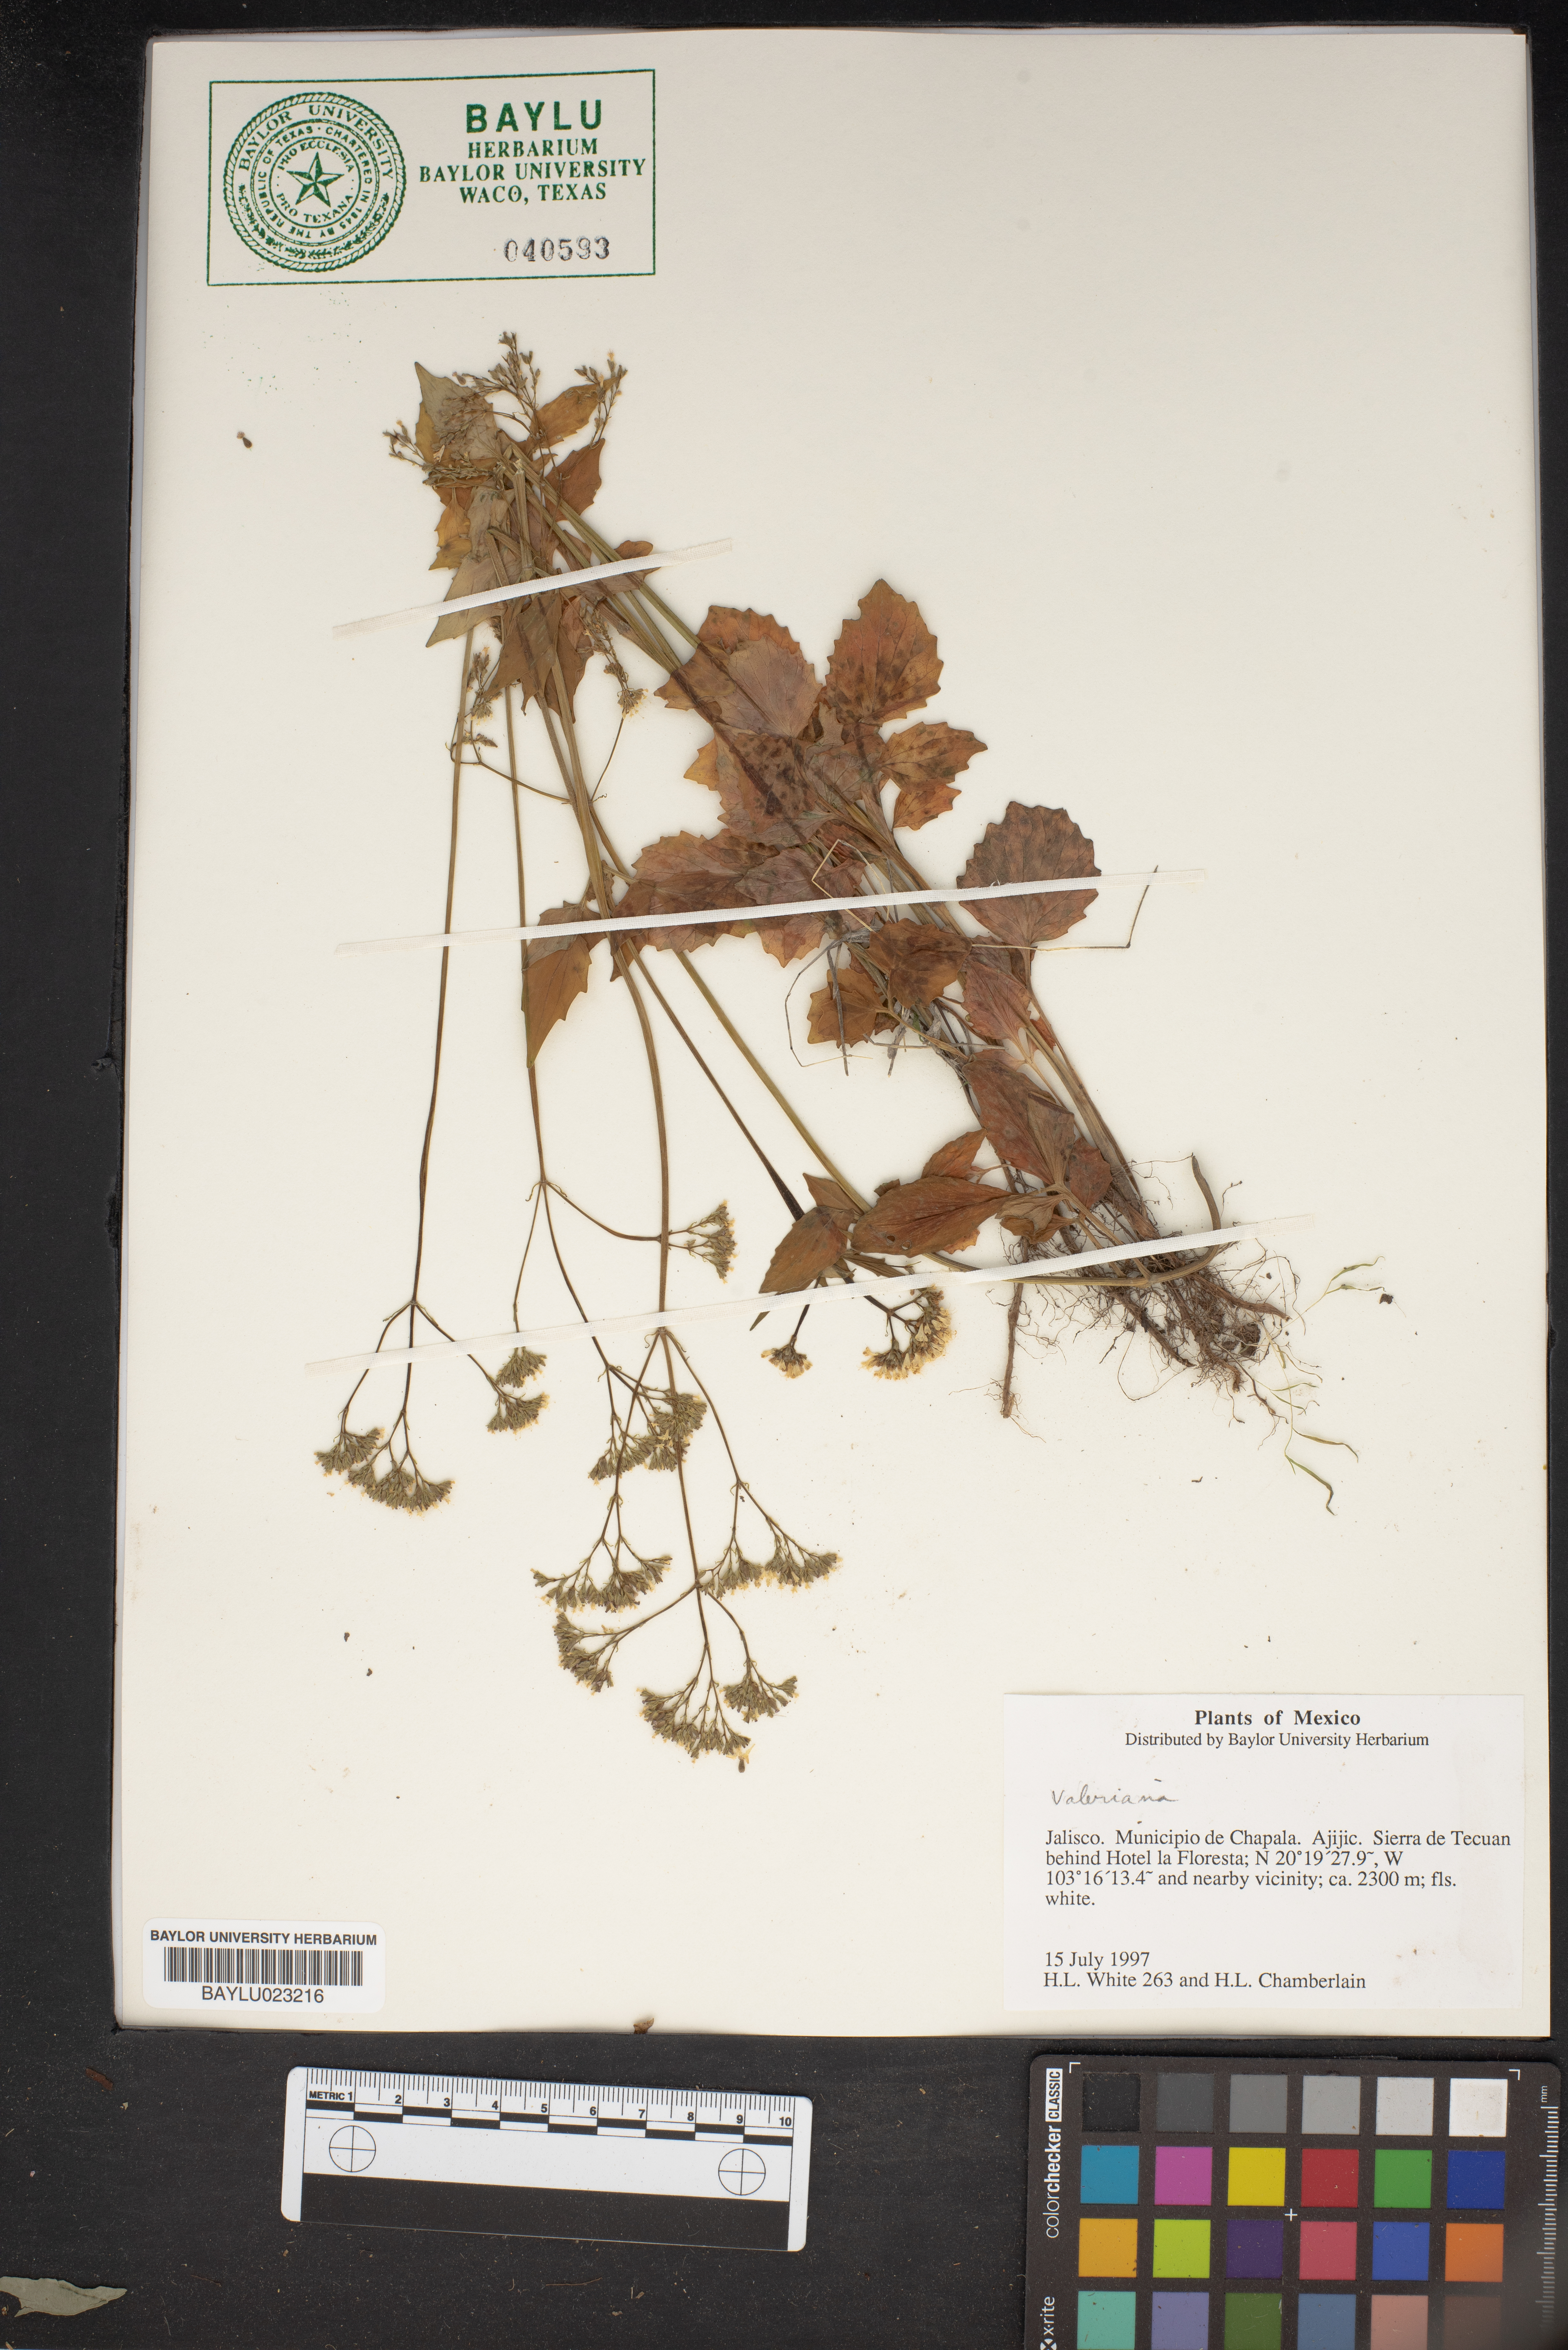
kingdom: Plantae
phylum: Tracheophyta
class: Magnoliopsida
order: Dipsacales
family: Caprifoliaceae
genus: Valeriana
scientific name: Valeriana
